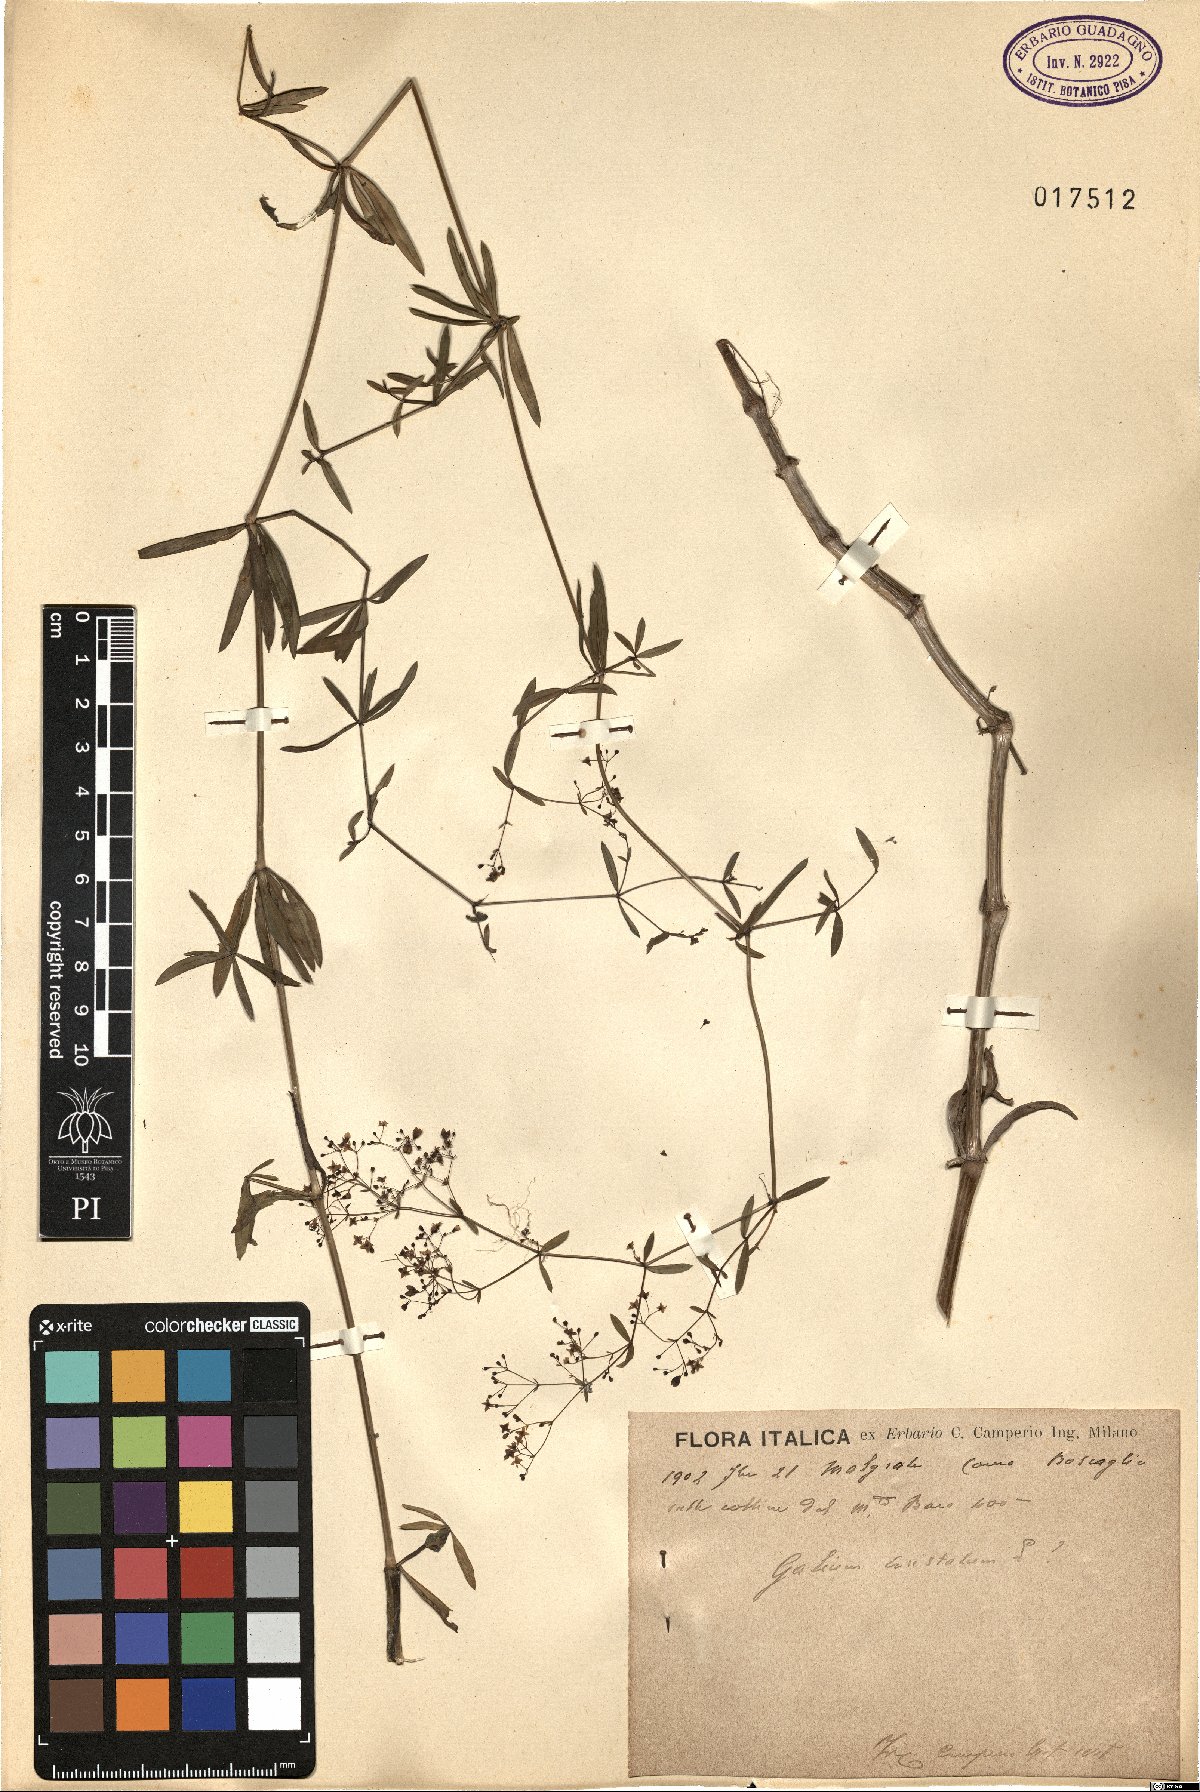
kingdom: Plantae
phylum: Tracheophyta
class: Magnoliopsida
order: Gentianales
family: Rubiaceae
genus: Galium
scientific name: Galium aristatum
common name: Awned bedstraw
